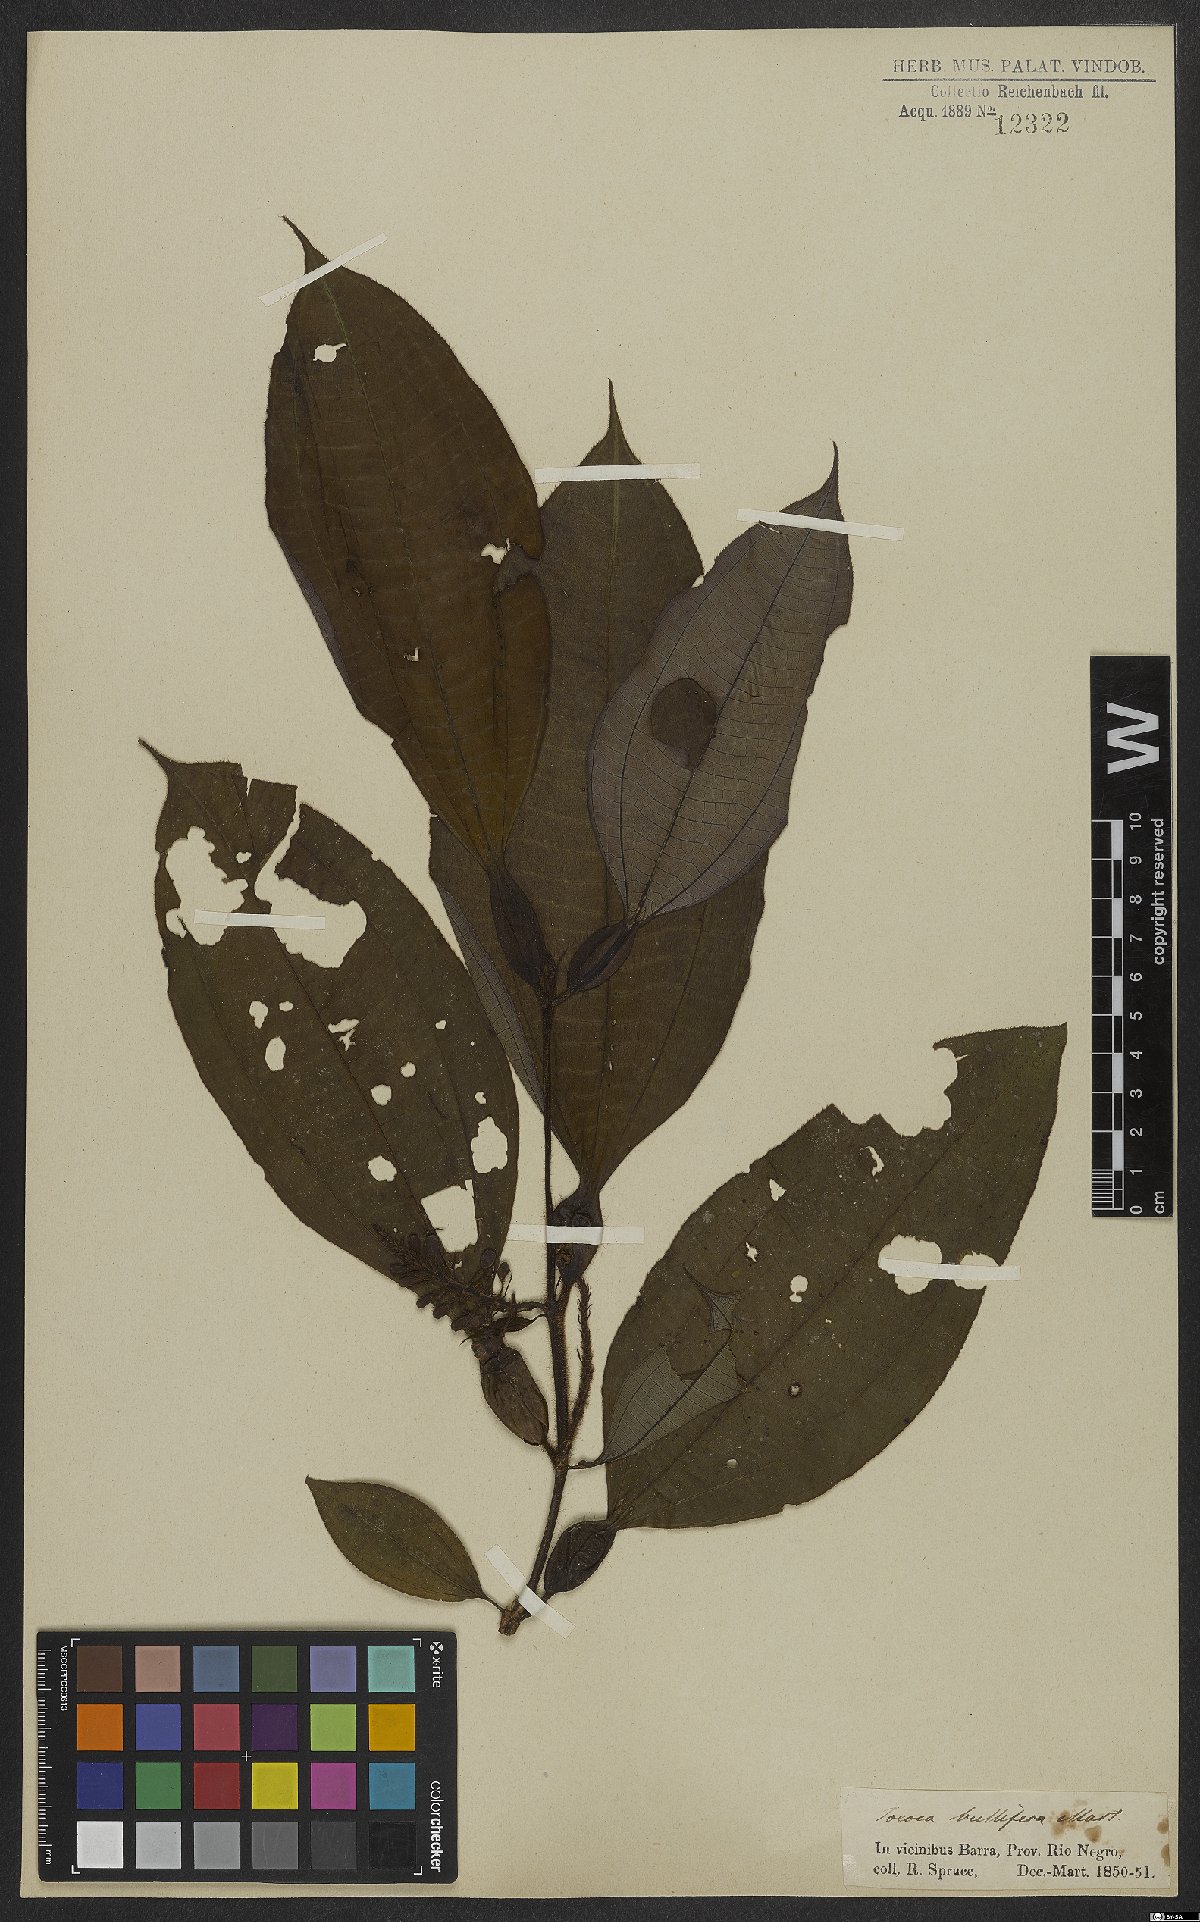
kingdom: Plantae
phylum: Tracheophyta
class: Magnoliopsida
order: Myrtales
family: Melastomataceae
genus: Miconia
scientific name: Miconia bullifera
